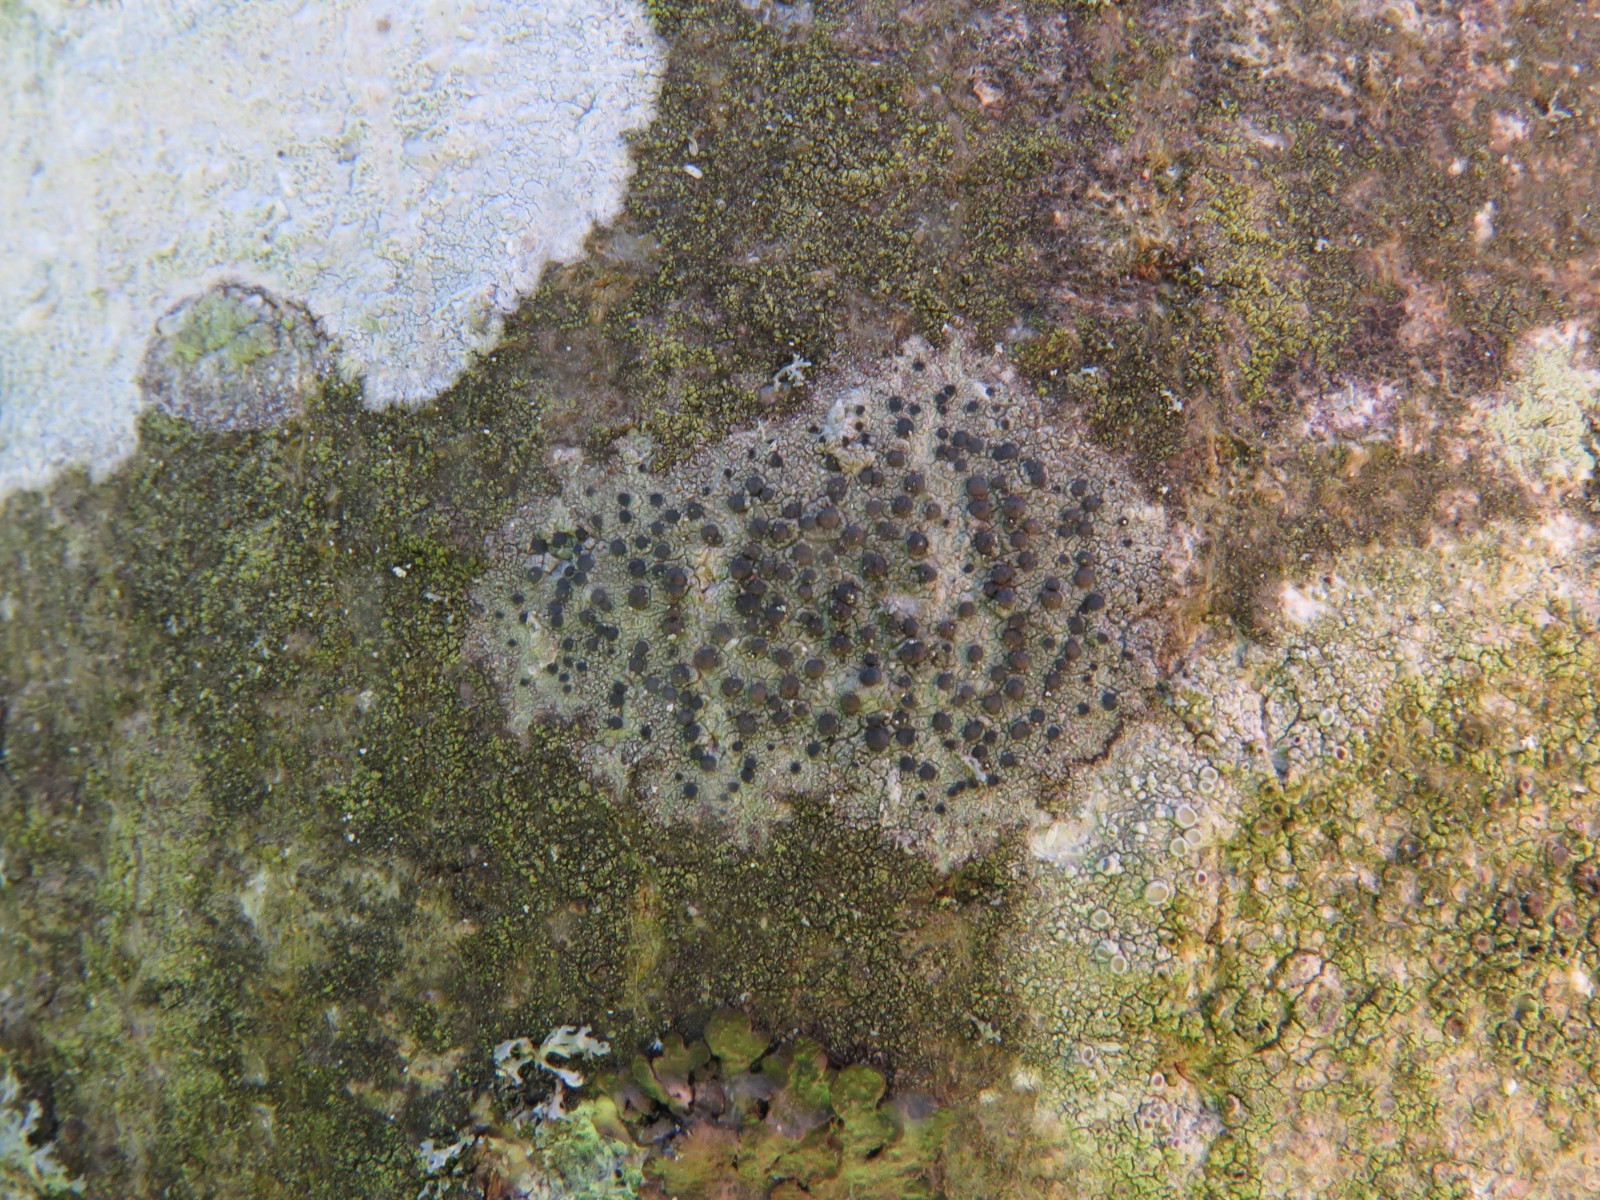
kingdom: Fungi
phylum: Ascomycota
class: Lecanoromycetes
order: Lecanorales
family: Lecanoraceae
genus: Lecidella
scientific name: Lecidella elaeochroma
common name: grågrøn skivelav
